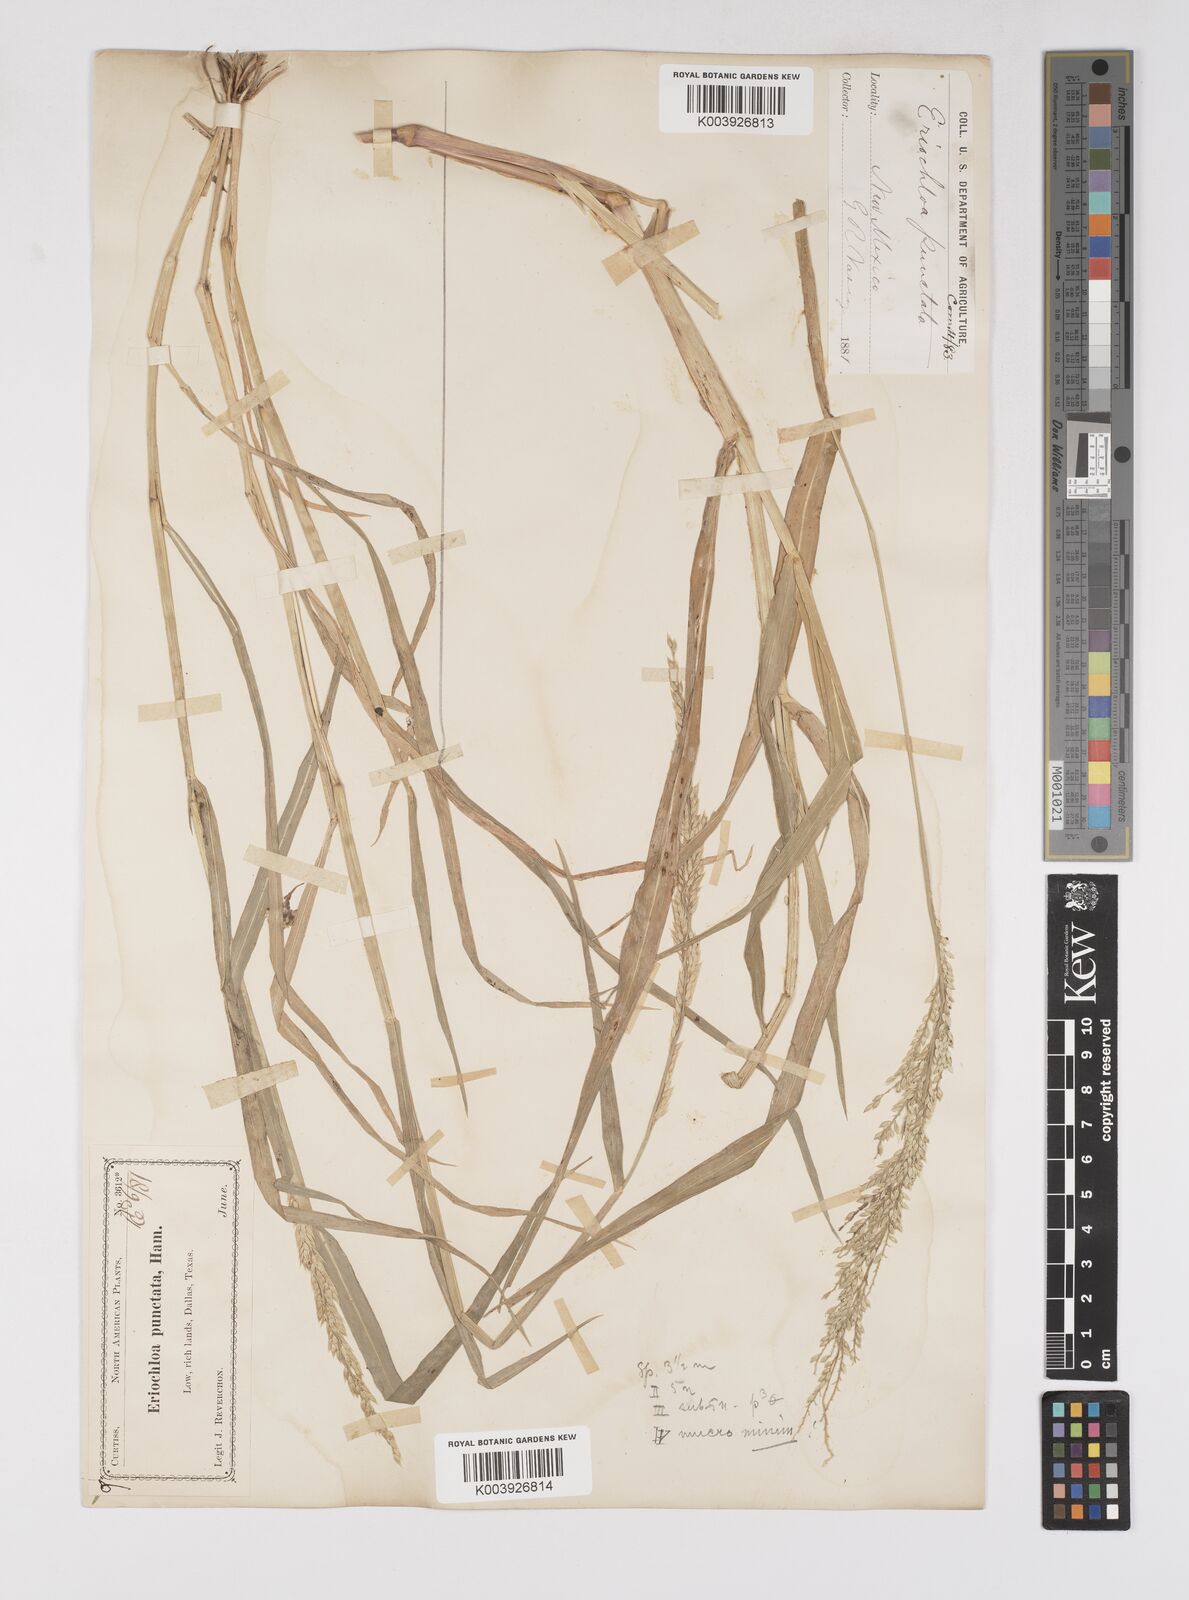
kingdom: Plantae
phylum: Tracheophyta
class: Liliopsida
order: Poales
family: Poaceae
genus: Eriochloa
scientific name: Eriochloa contracta
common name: Prairie cup grass
